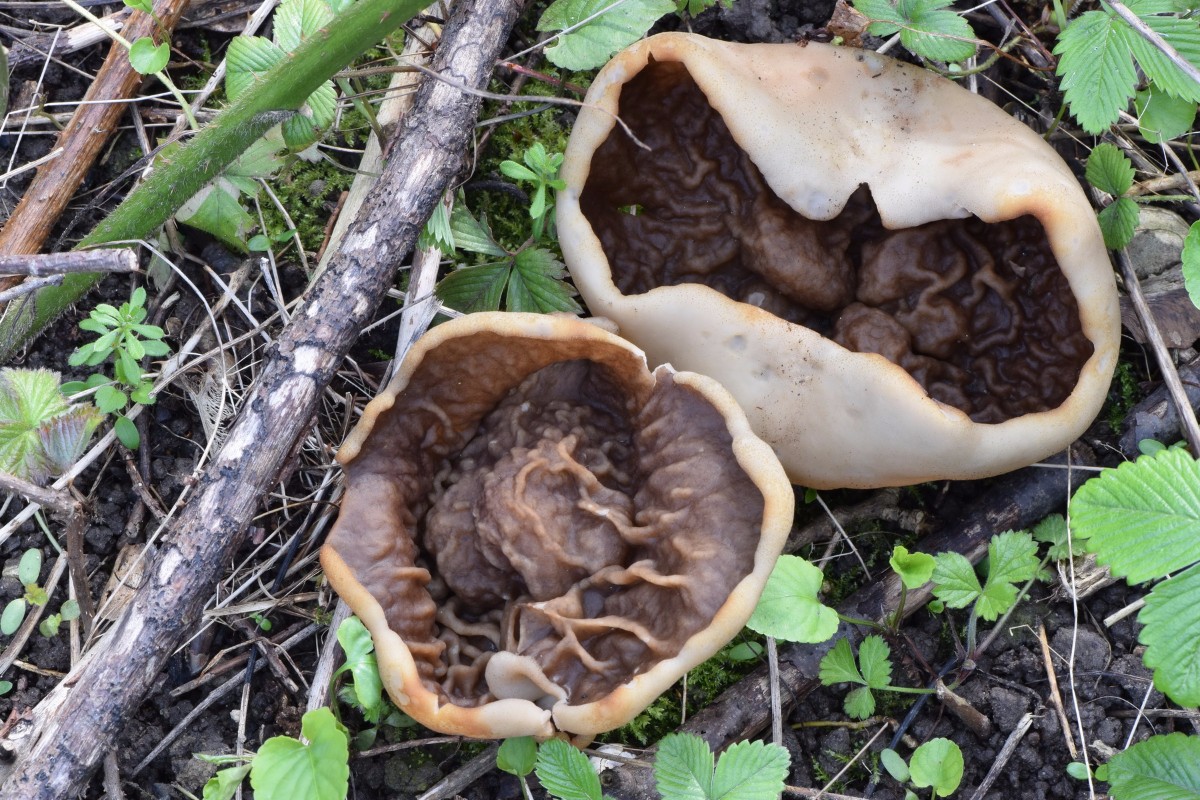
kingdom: Fungi
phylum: Ascomycota
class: Pezizomycetes
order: Pezizales
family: Morchellaceae
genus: Disciotis
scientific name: Disciotis venosa
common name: klor-bægermorkel
